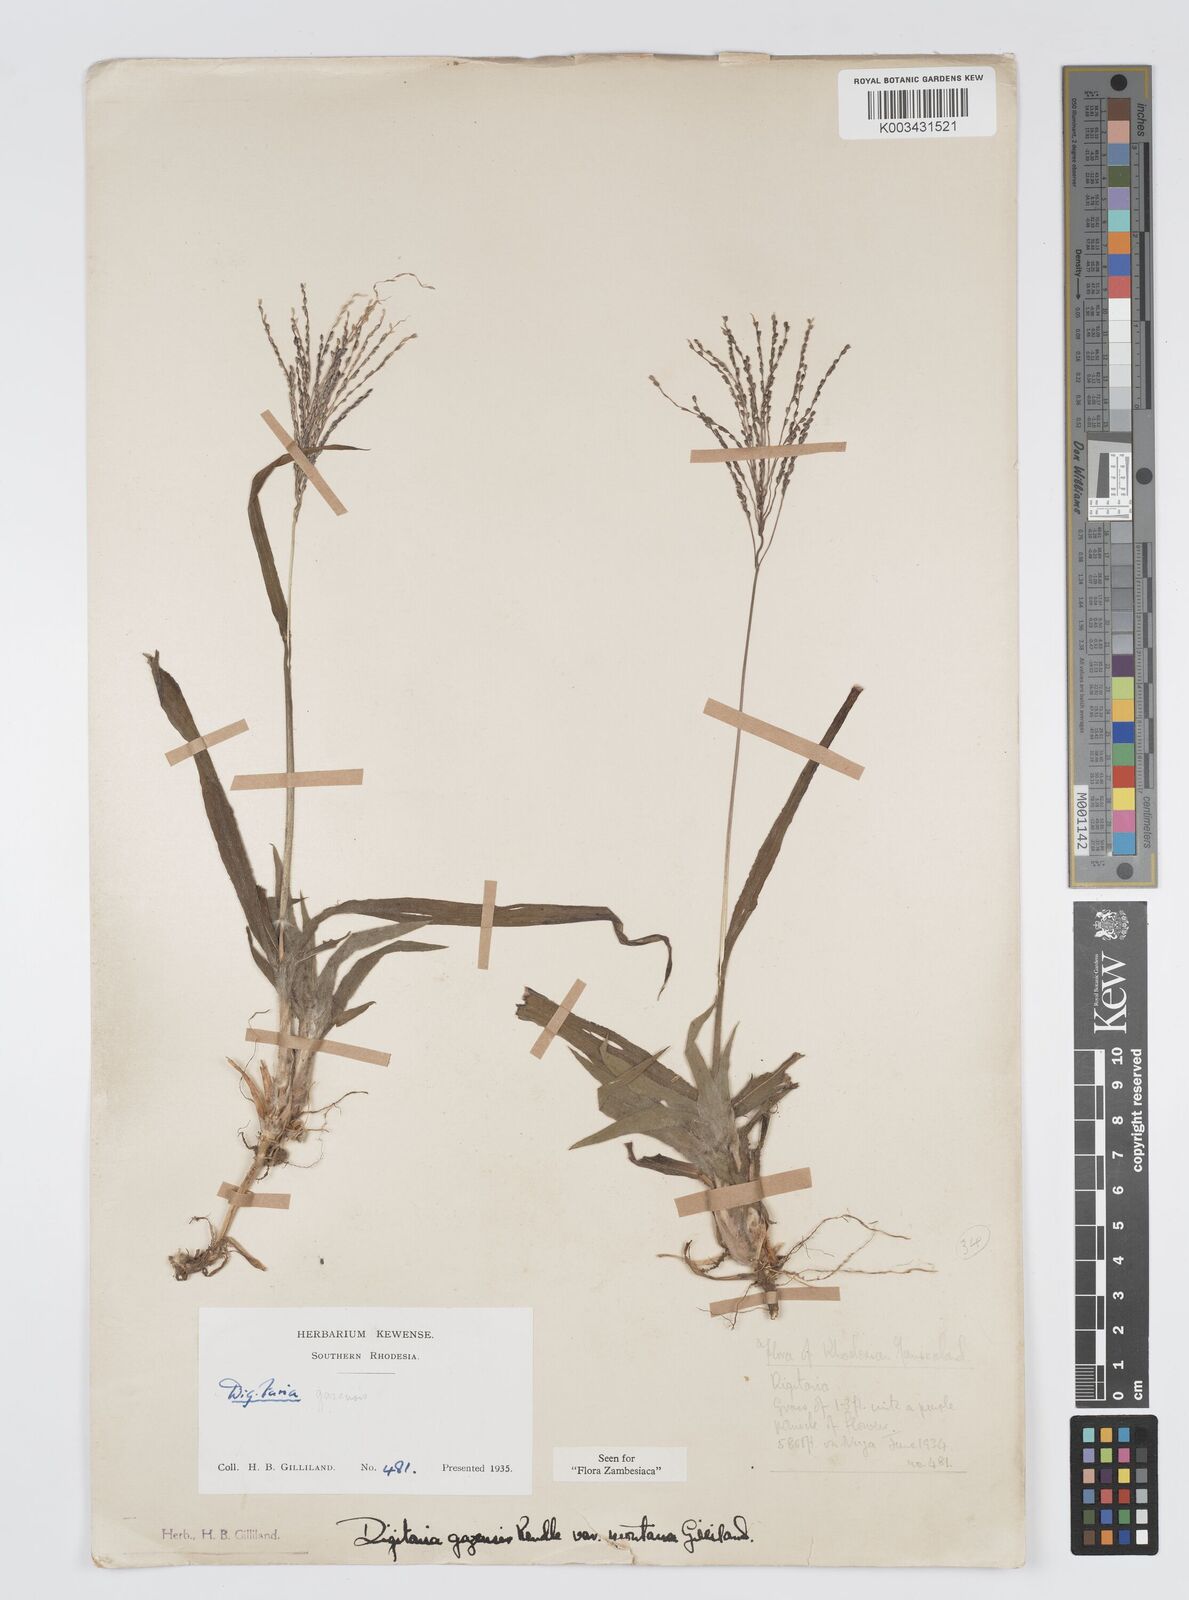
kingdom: Plantae
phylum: Tracheophyta
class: Liliopsida
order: Poales
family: Poaceae
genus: Digitaria
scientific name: Digitaria gazensis
